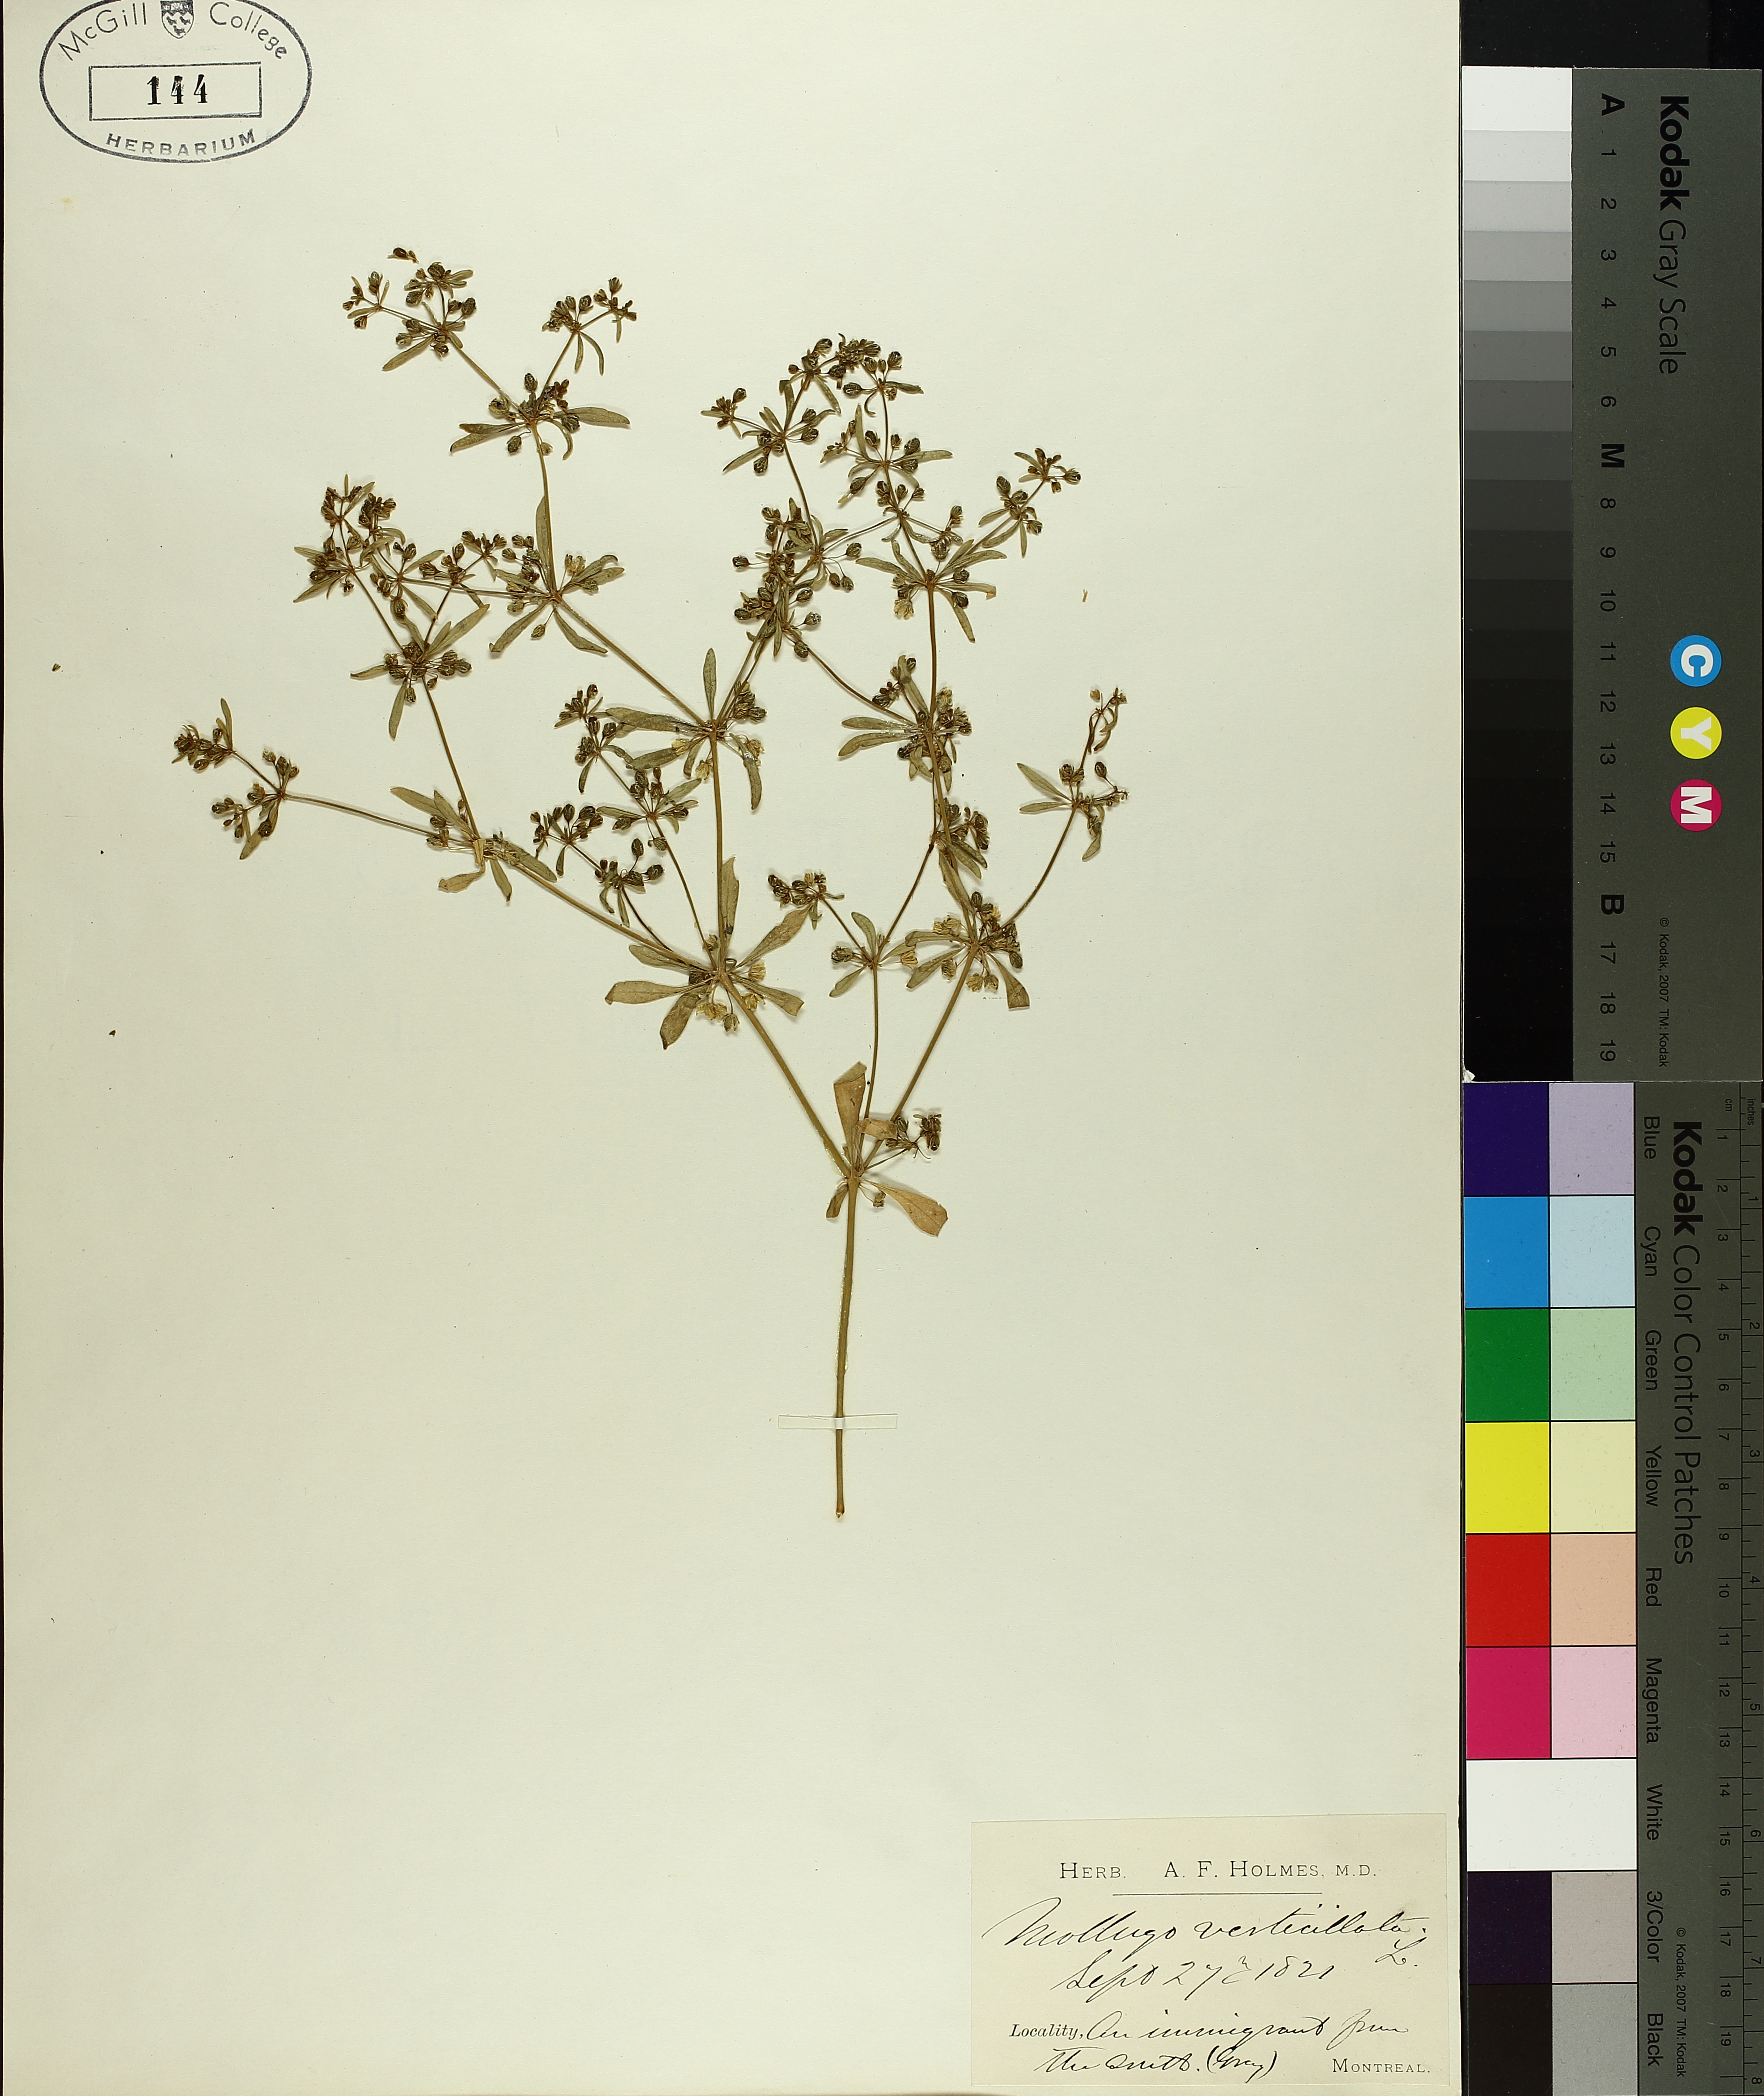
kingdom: Plantae
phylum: Tracheophyta
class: Magnoliopsida
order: Caryophyllales
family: Molluginaceae
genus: Mollugo
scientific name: Mollugo verticillata
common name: Green carpetweed
